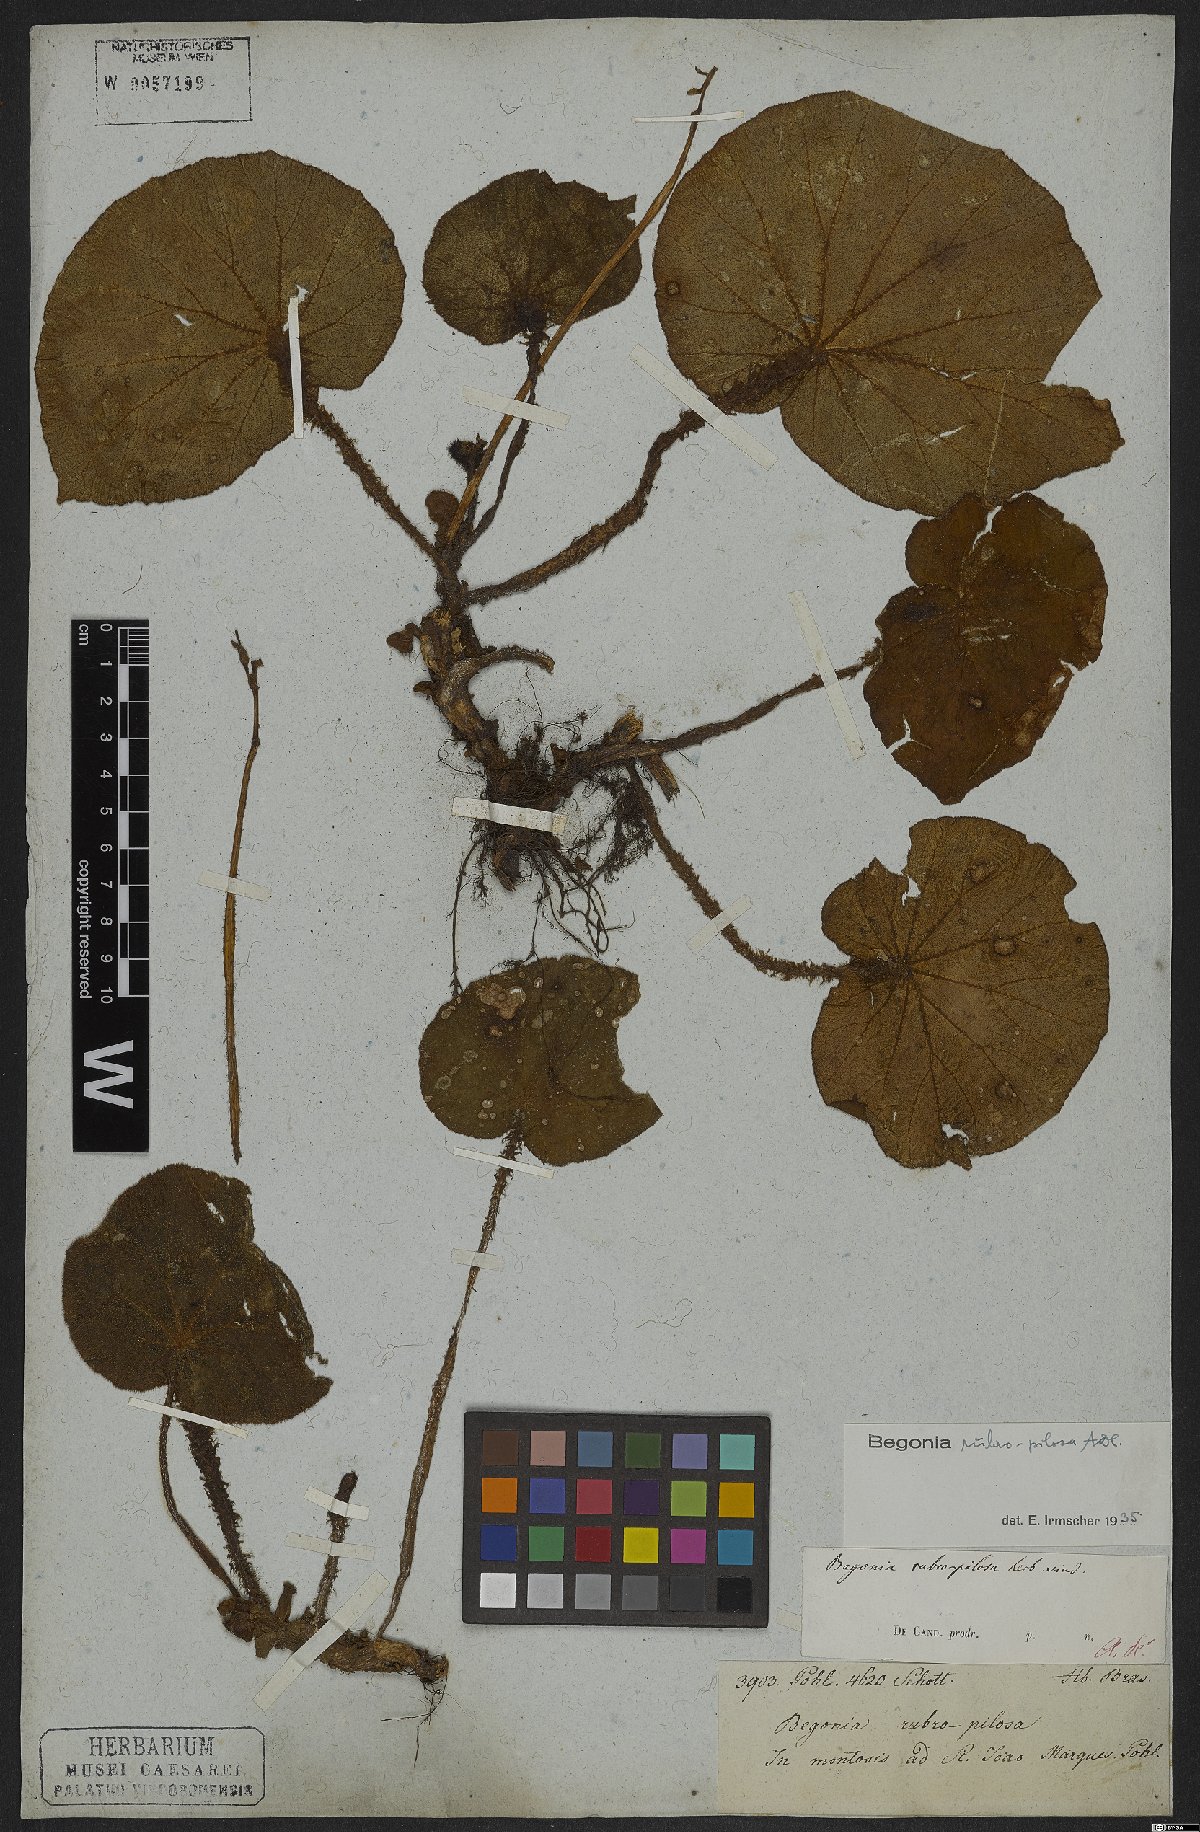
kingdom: Plantae
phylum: Tracheophyta
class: Magnoliopsida
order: Cucurbitales
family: Begoniaceae
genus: Begonia
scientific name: Begonia rubropilosa
